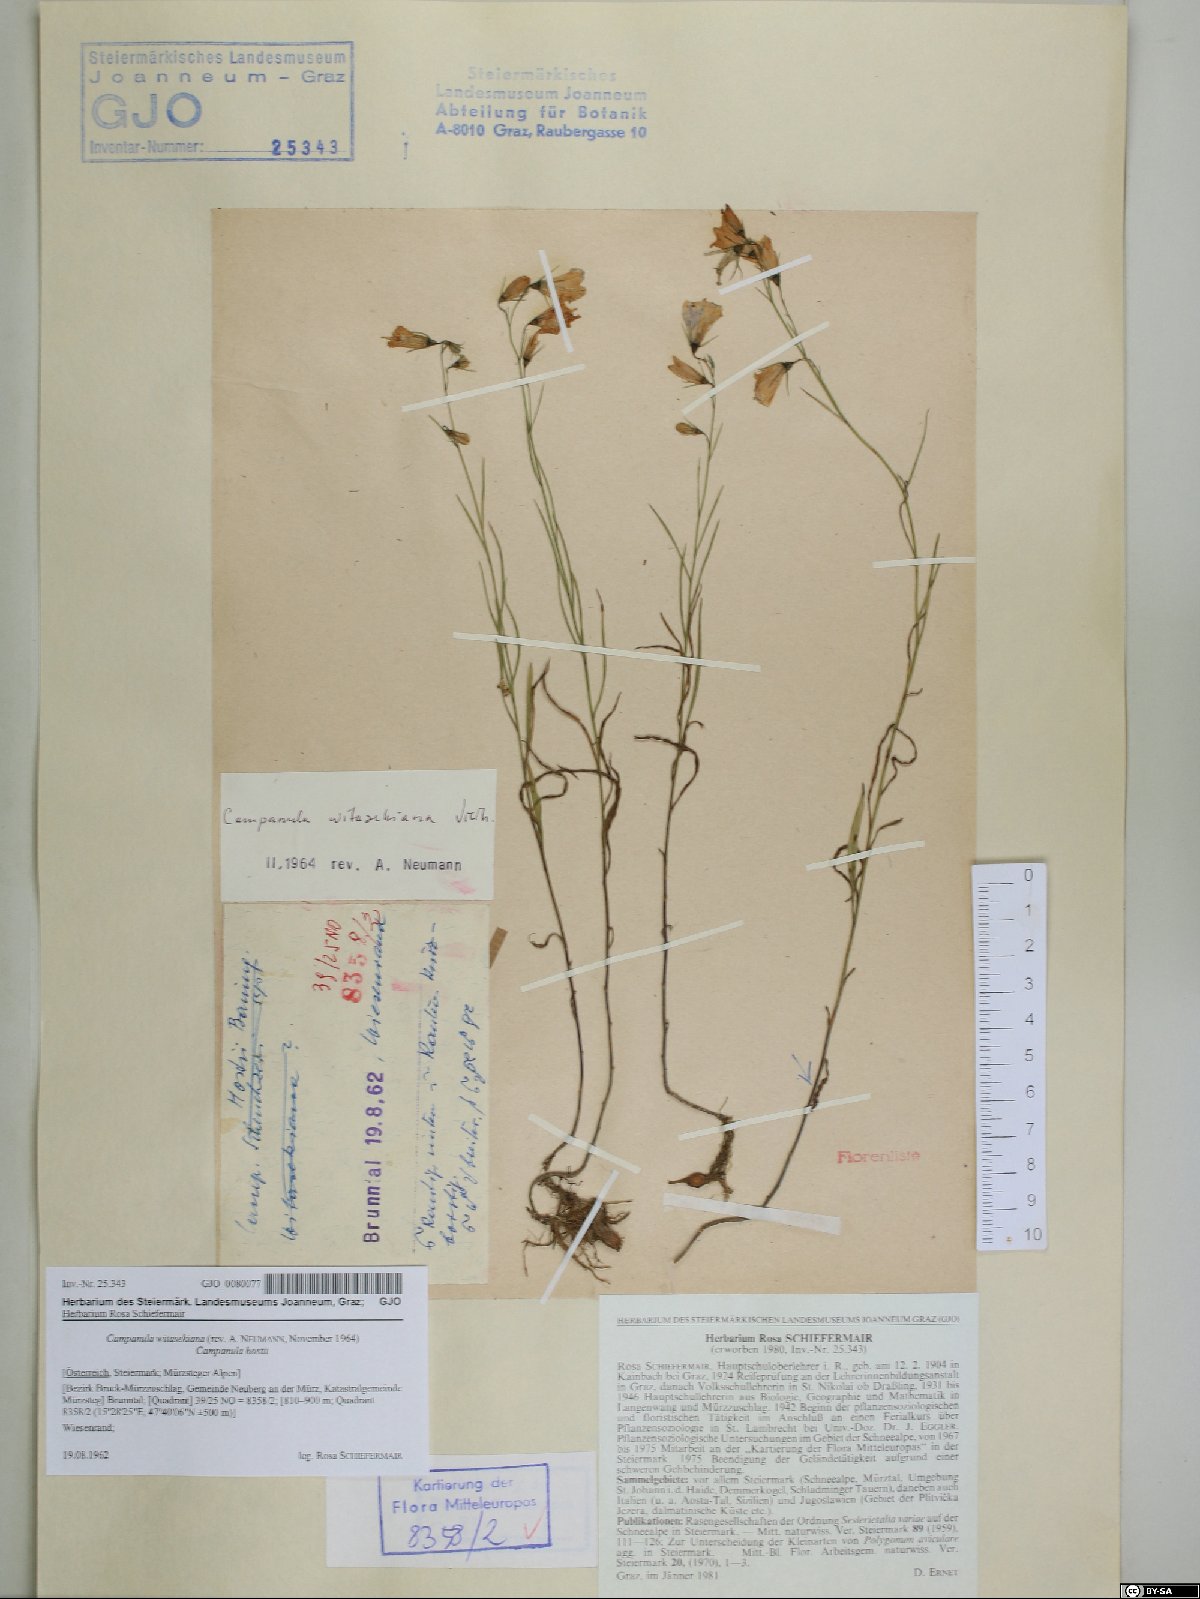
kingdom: Plantae
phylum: Tracheophyta
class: Magnoliopsida
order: Asterales
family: Campanulaceae
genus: Campanula
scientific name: Campanula witasekiana
